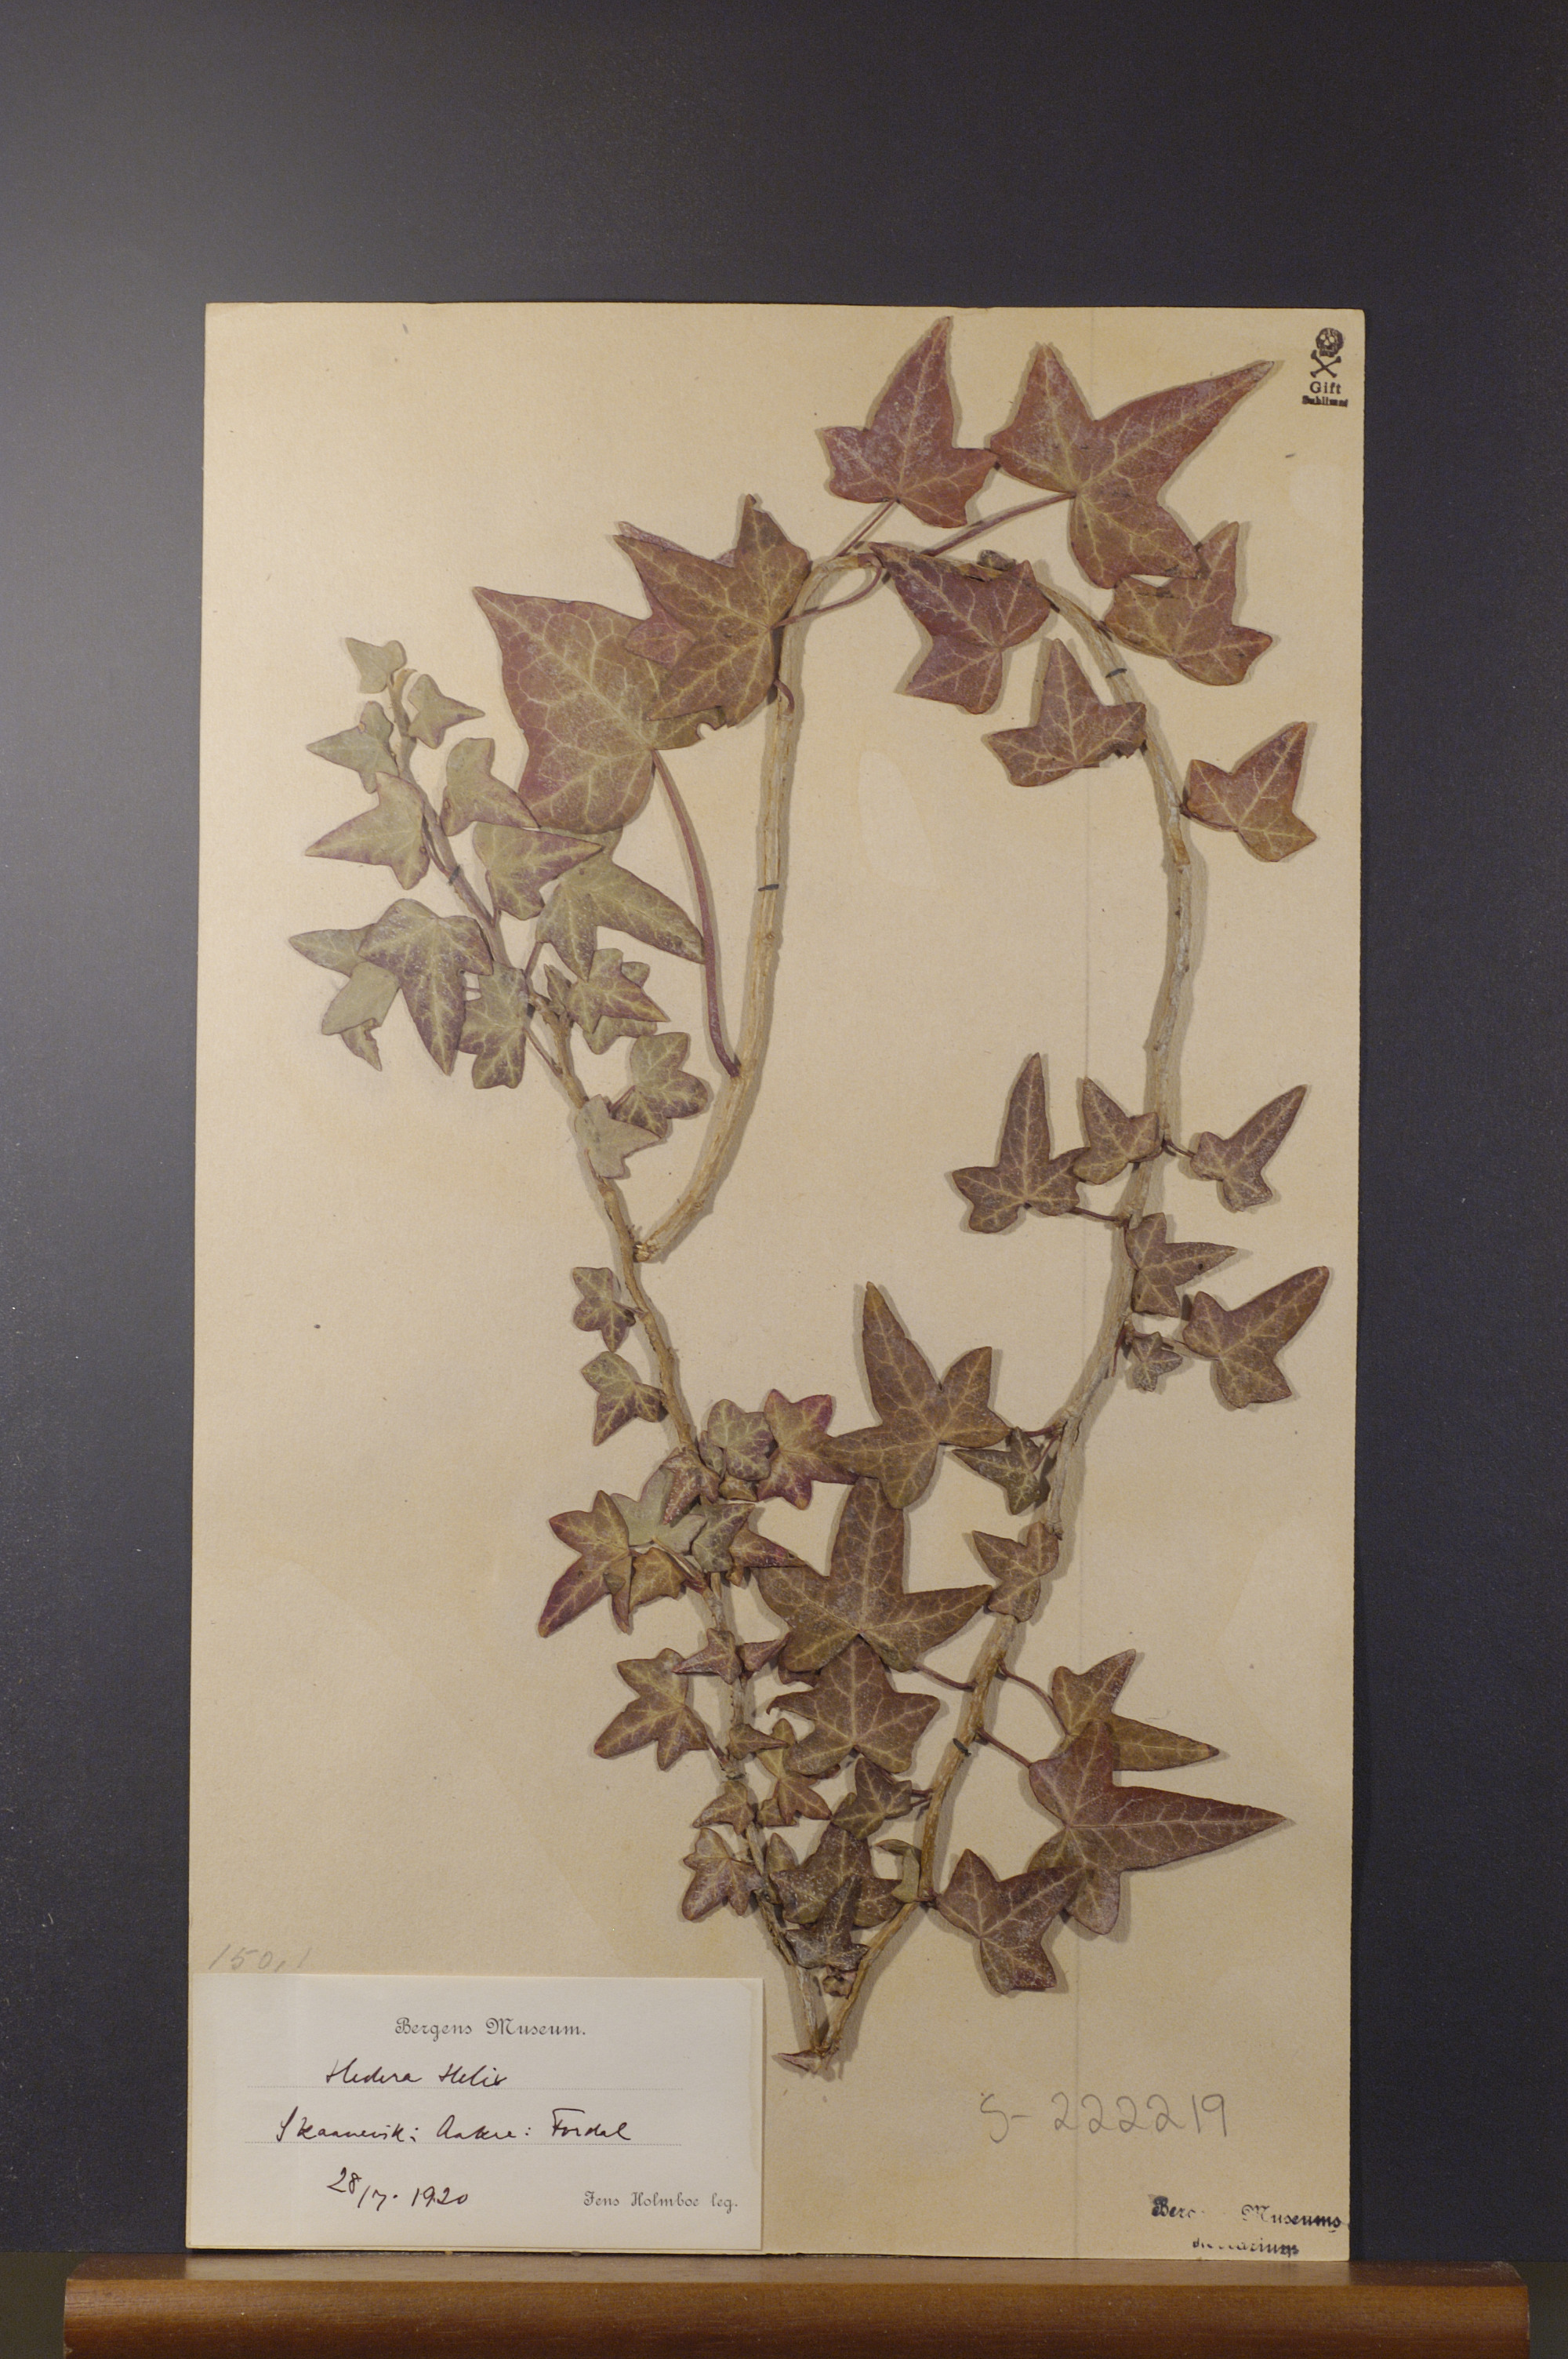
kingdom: Plantae
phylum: Tracheophyta
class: Magnoliopsida
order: Apiales
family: Araliaceae
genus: Hedera
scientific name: Hedera helix
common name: Ivy
